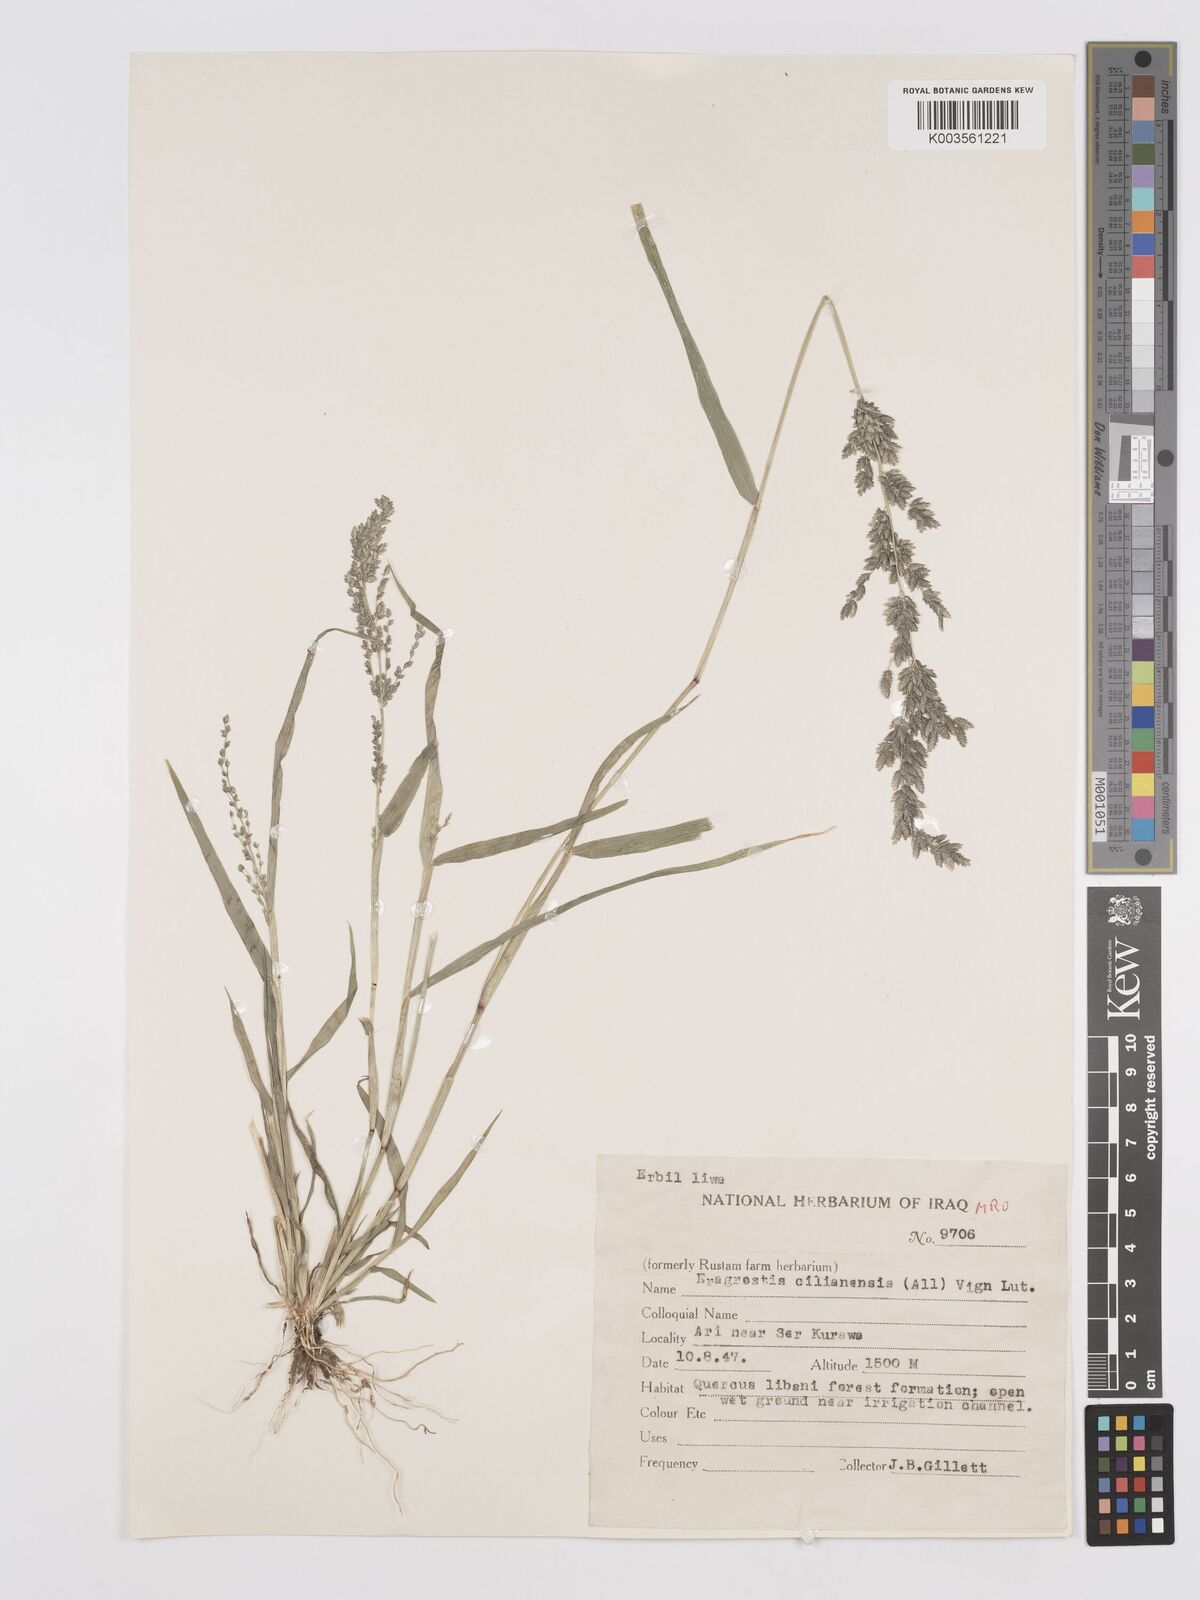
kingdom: Plantae
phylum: Tracheophyta
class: Liliopsida
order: Poales
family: Poaceae
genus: Eragrostis
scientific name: Eragrostis cilianensis
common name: Stinkgrass
